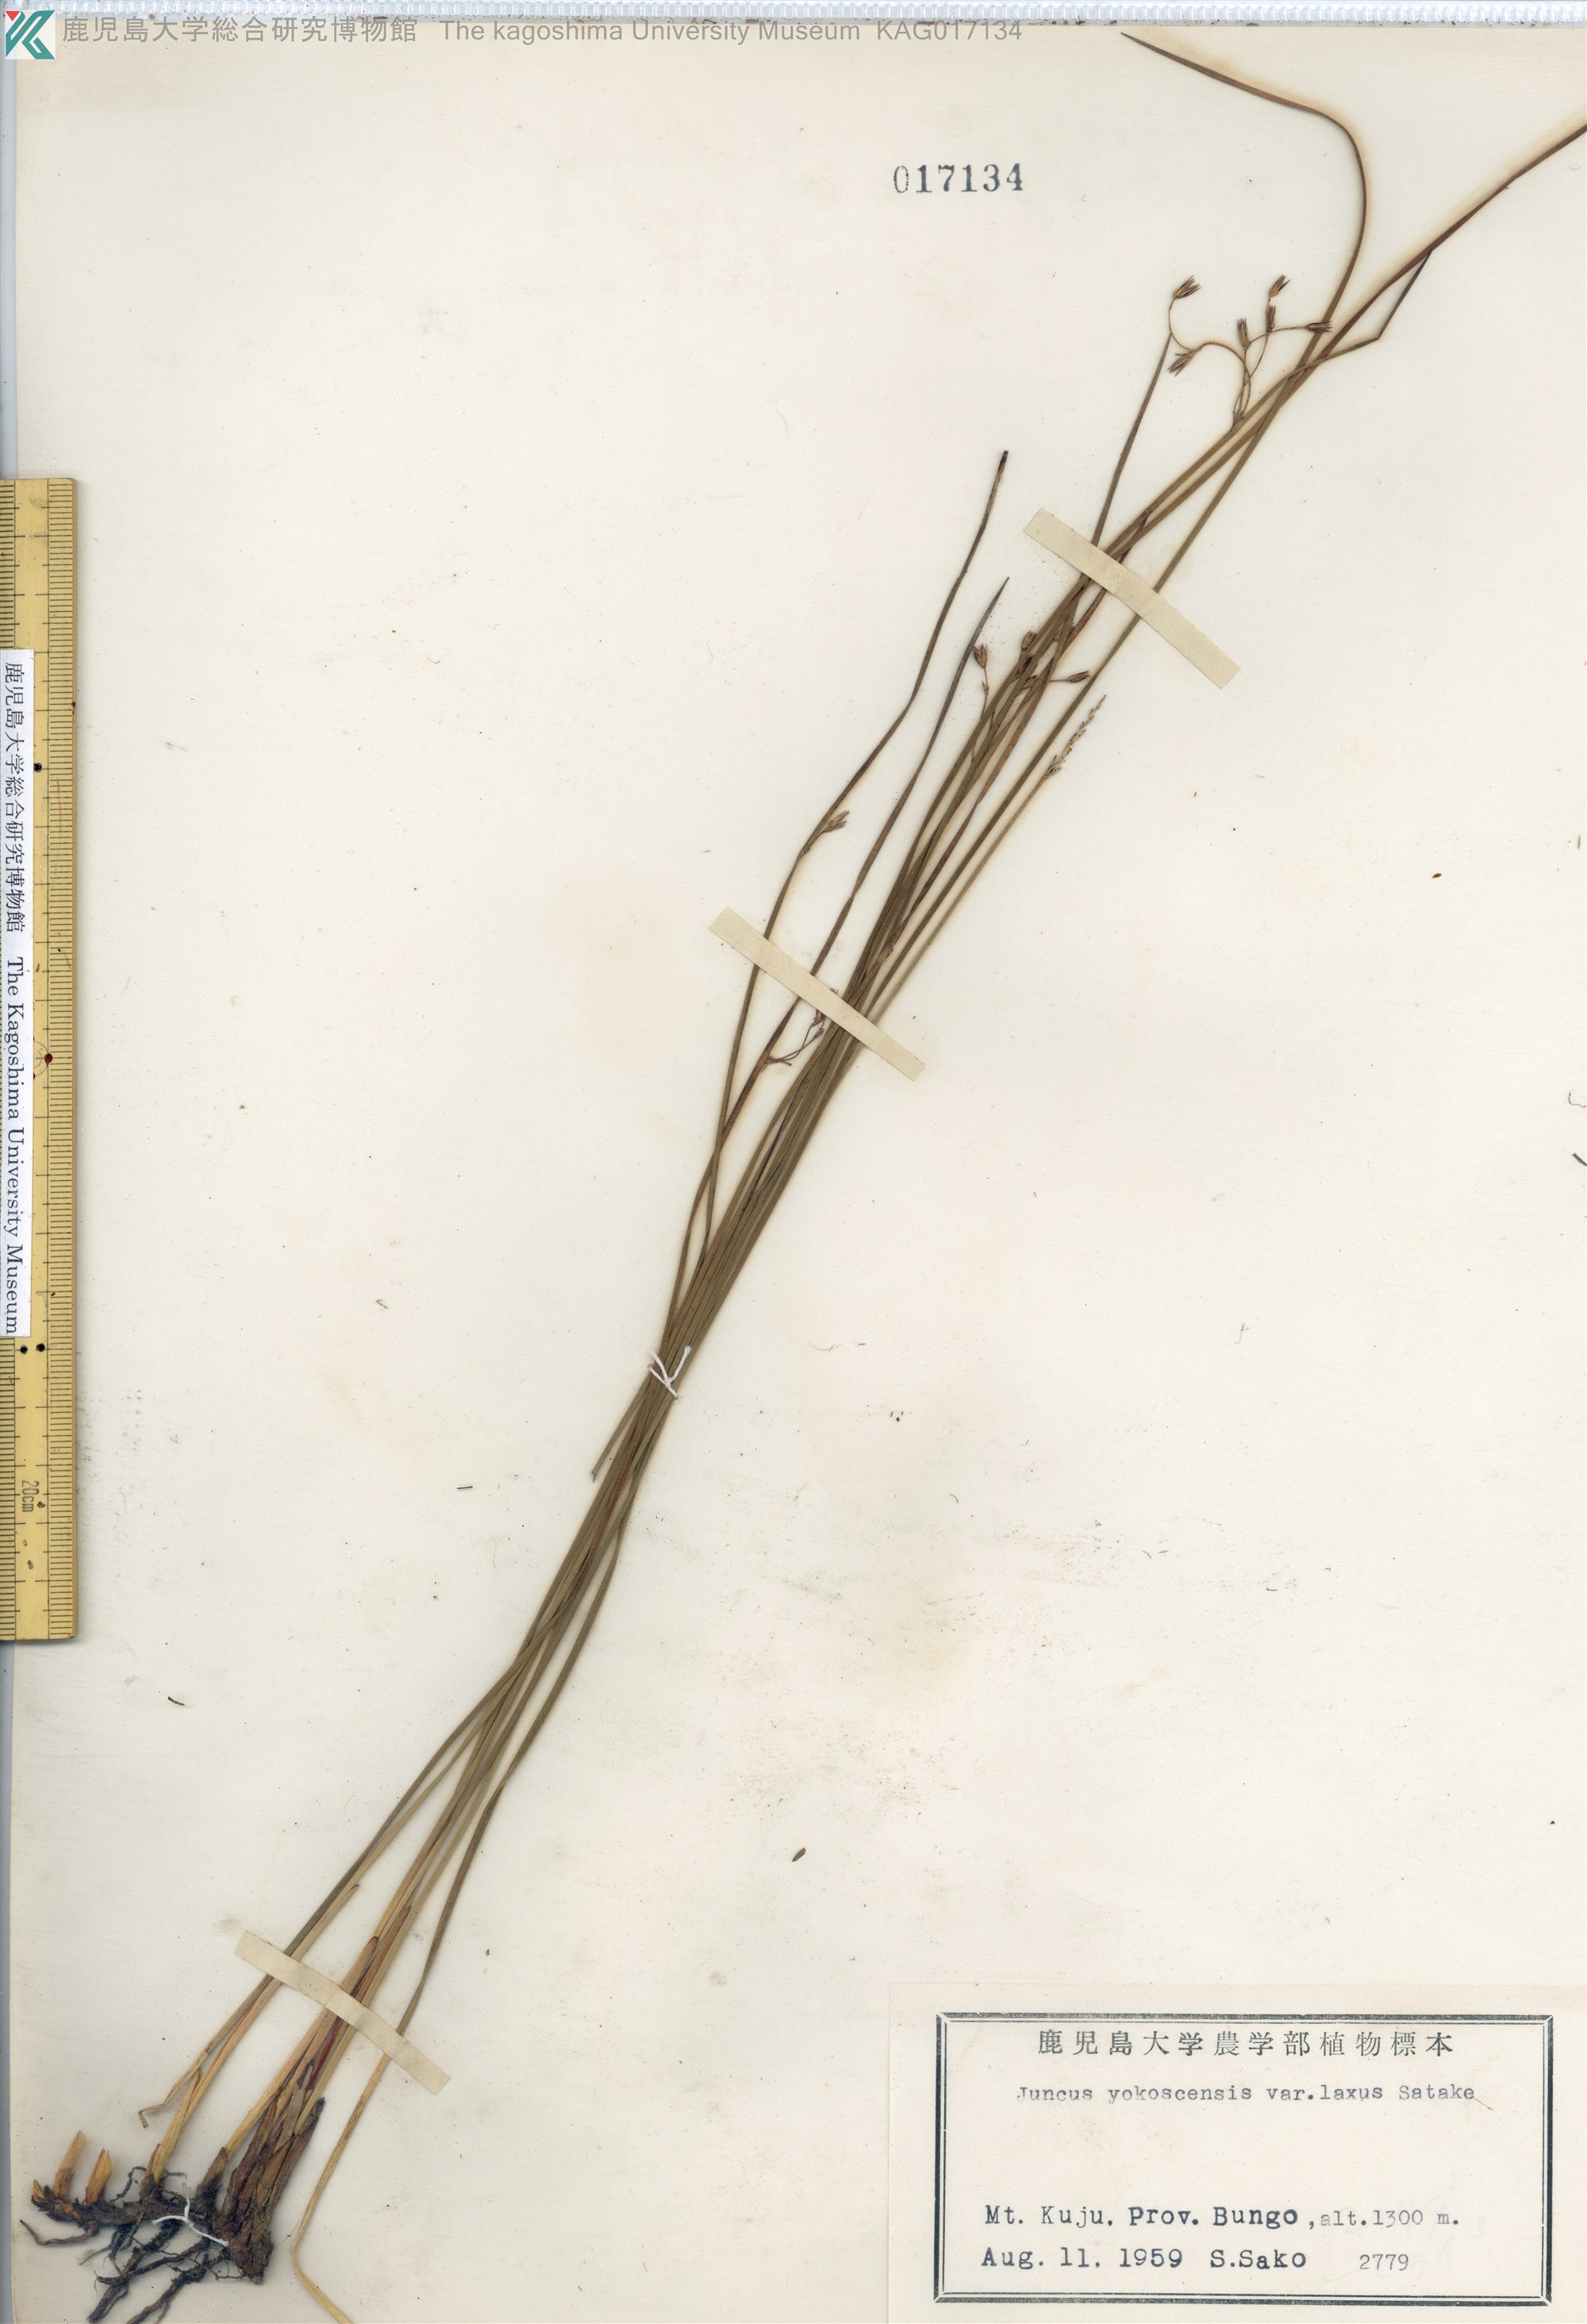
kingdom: Plantae
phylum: Tracheophyta
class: Liliopsida
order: Poales
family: Juncaceae
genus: Juncus
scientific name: Juncus fauriei
